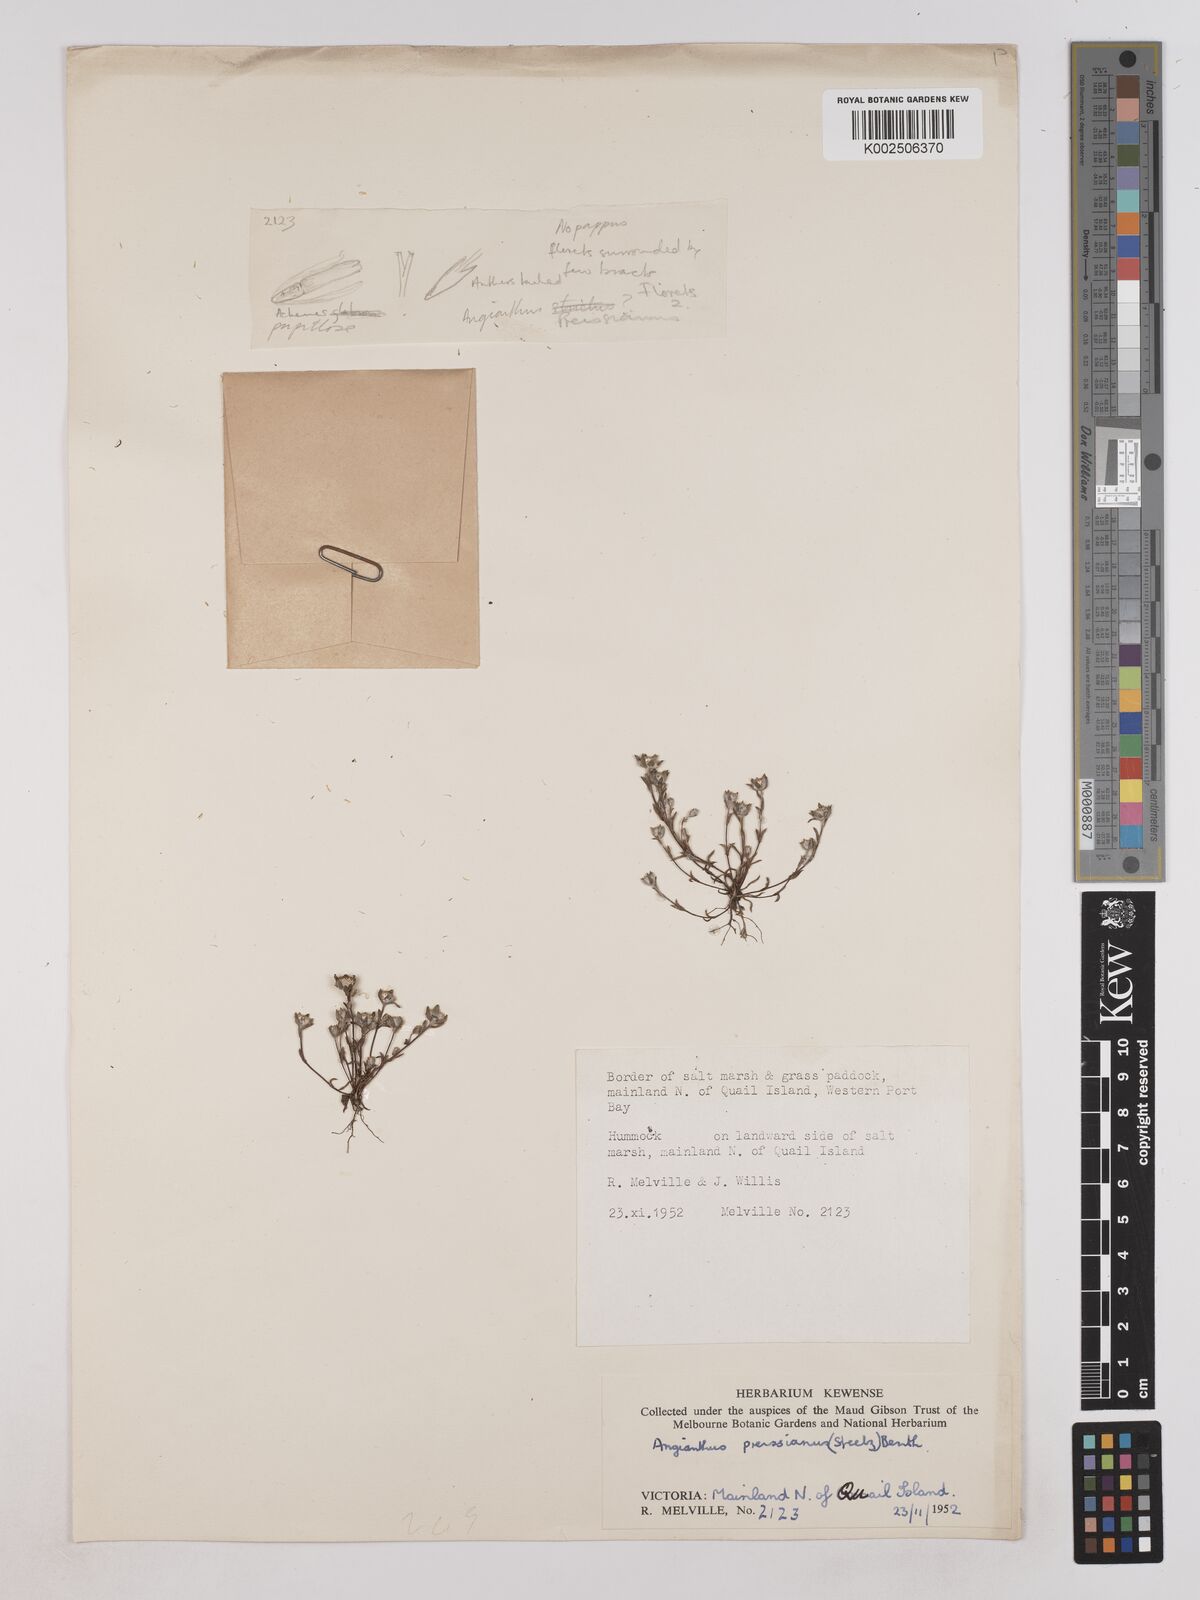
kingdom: Plantae
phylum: Tracheophyta
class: Magnoliopsida
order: Asterales
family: Asteraceae
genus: Angianthus
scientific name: Angianthus preissianus
